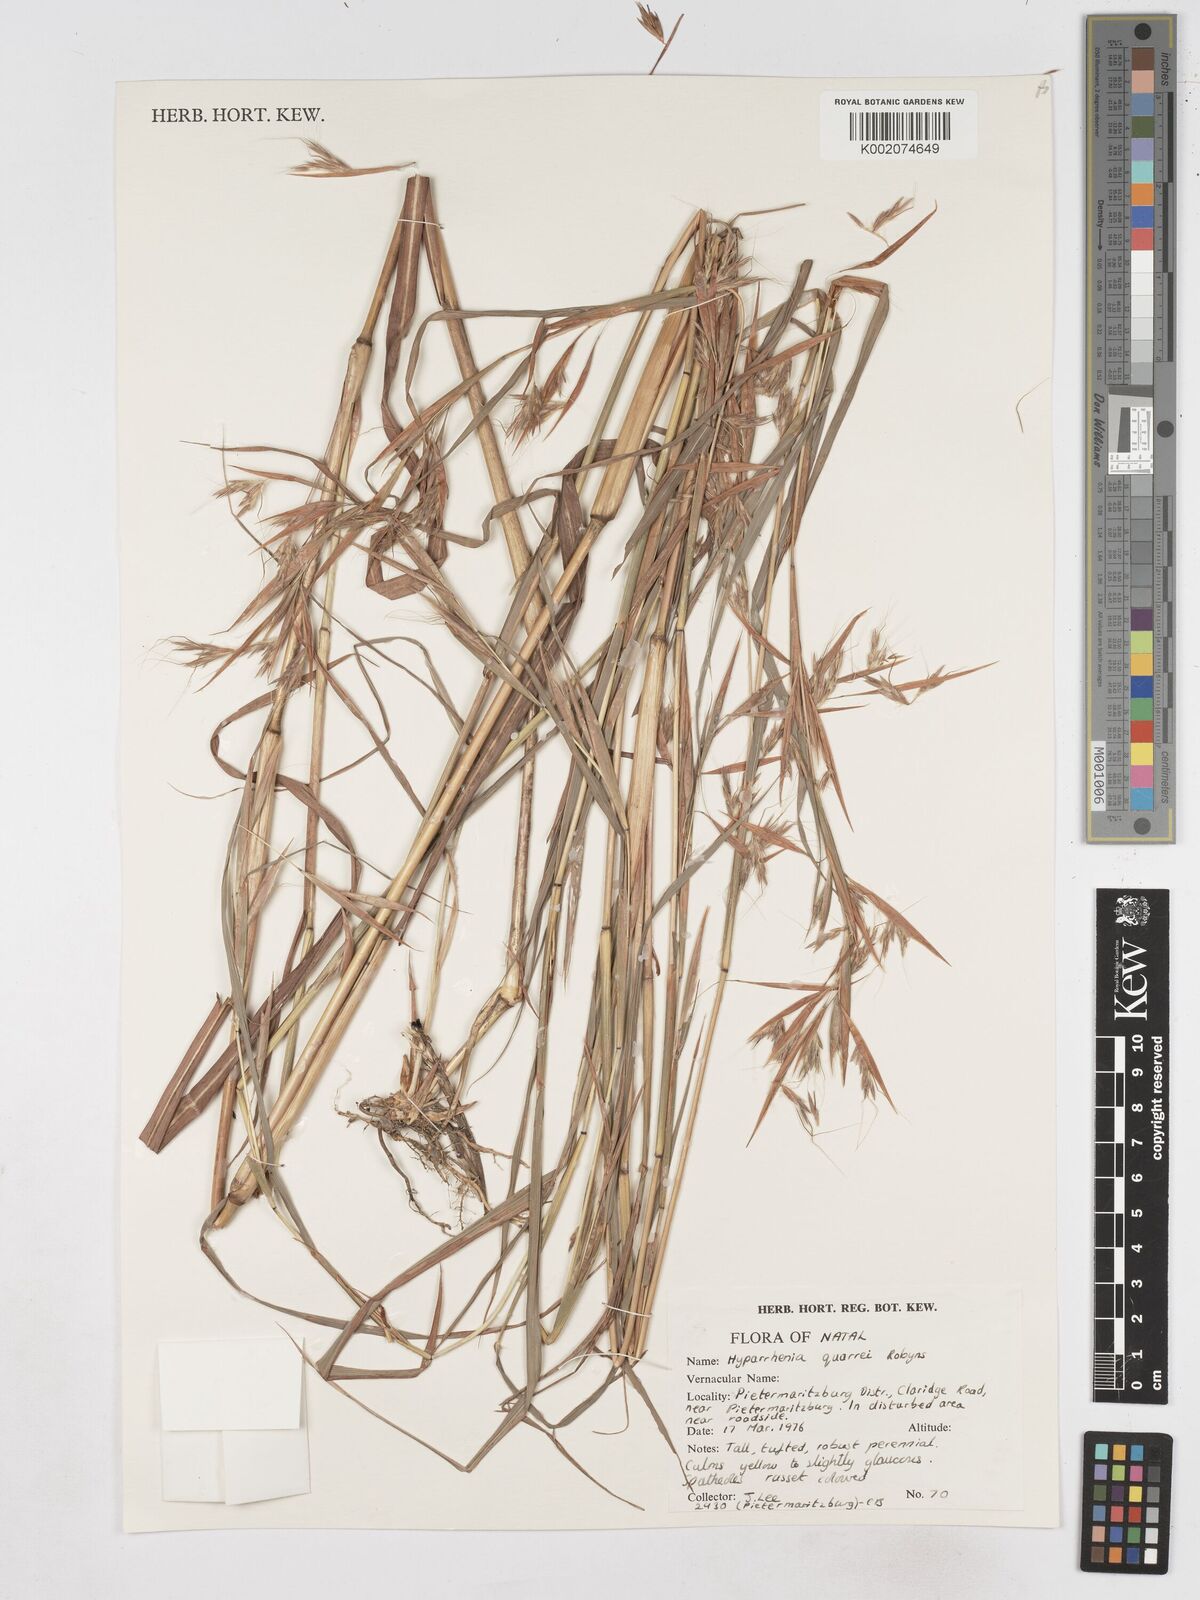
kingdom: Plantae
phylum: Tracheophyta
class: Liliopsida
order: Poales
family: Poaceae
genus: Hyparrhenia
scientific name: Hyparrhenia quarrei
